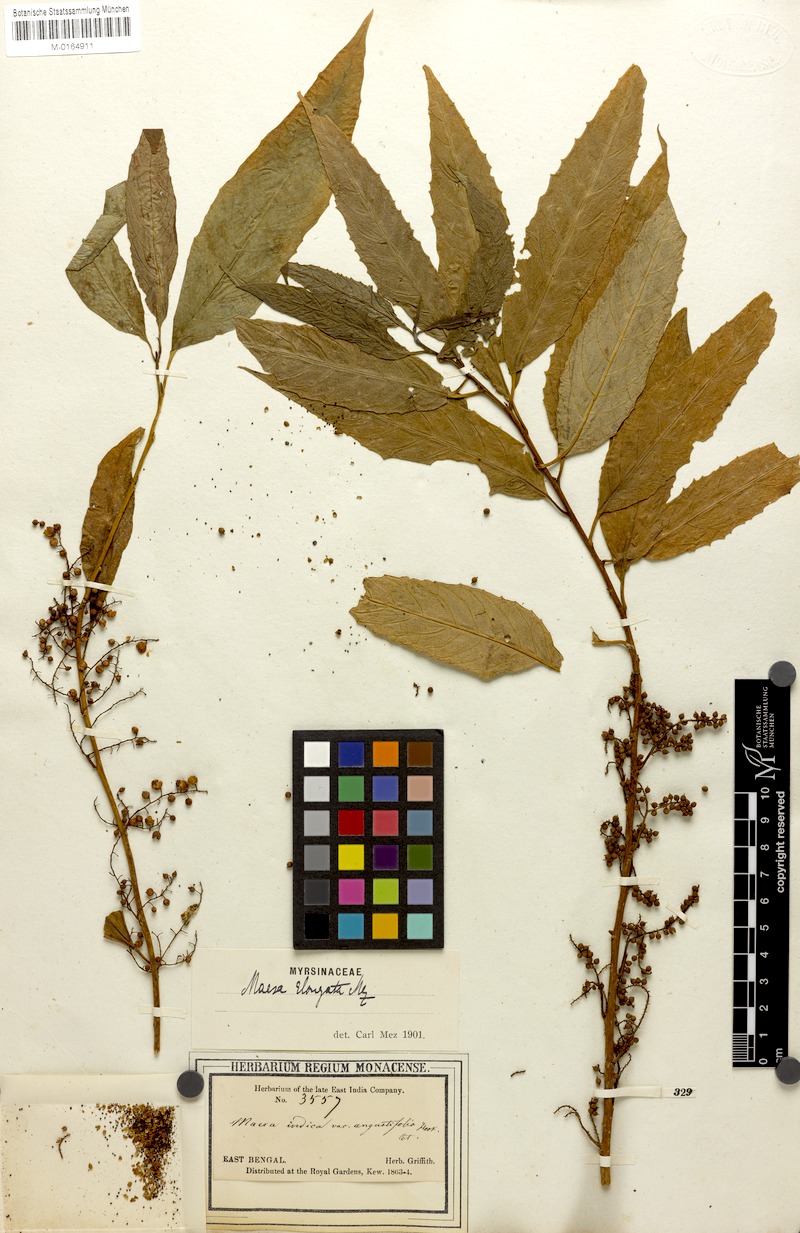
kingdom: Plantae
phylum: Tracheophyta
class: Magnoliopsida
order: Ericales
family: Primulaceae
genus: Maesa
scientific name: Maesa montana
